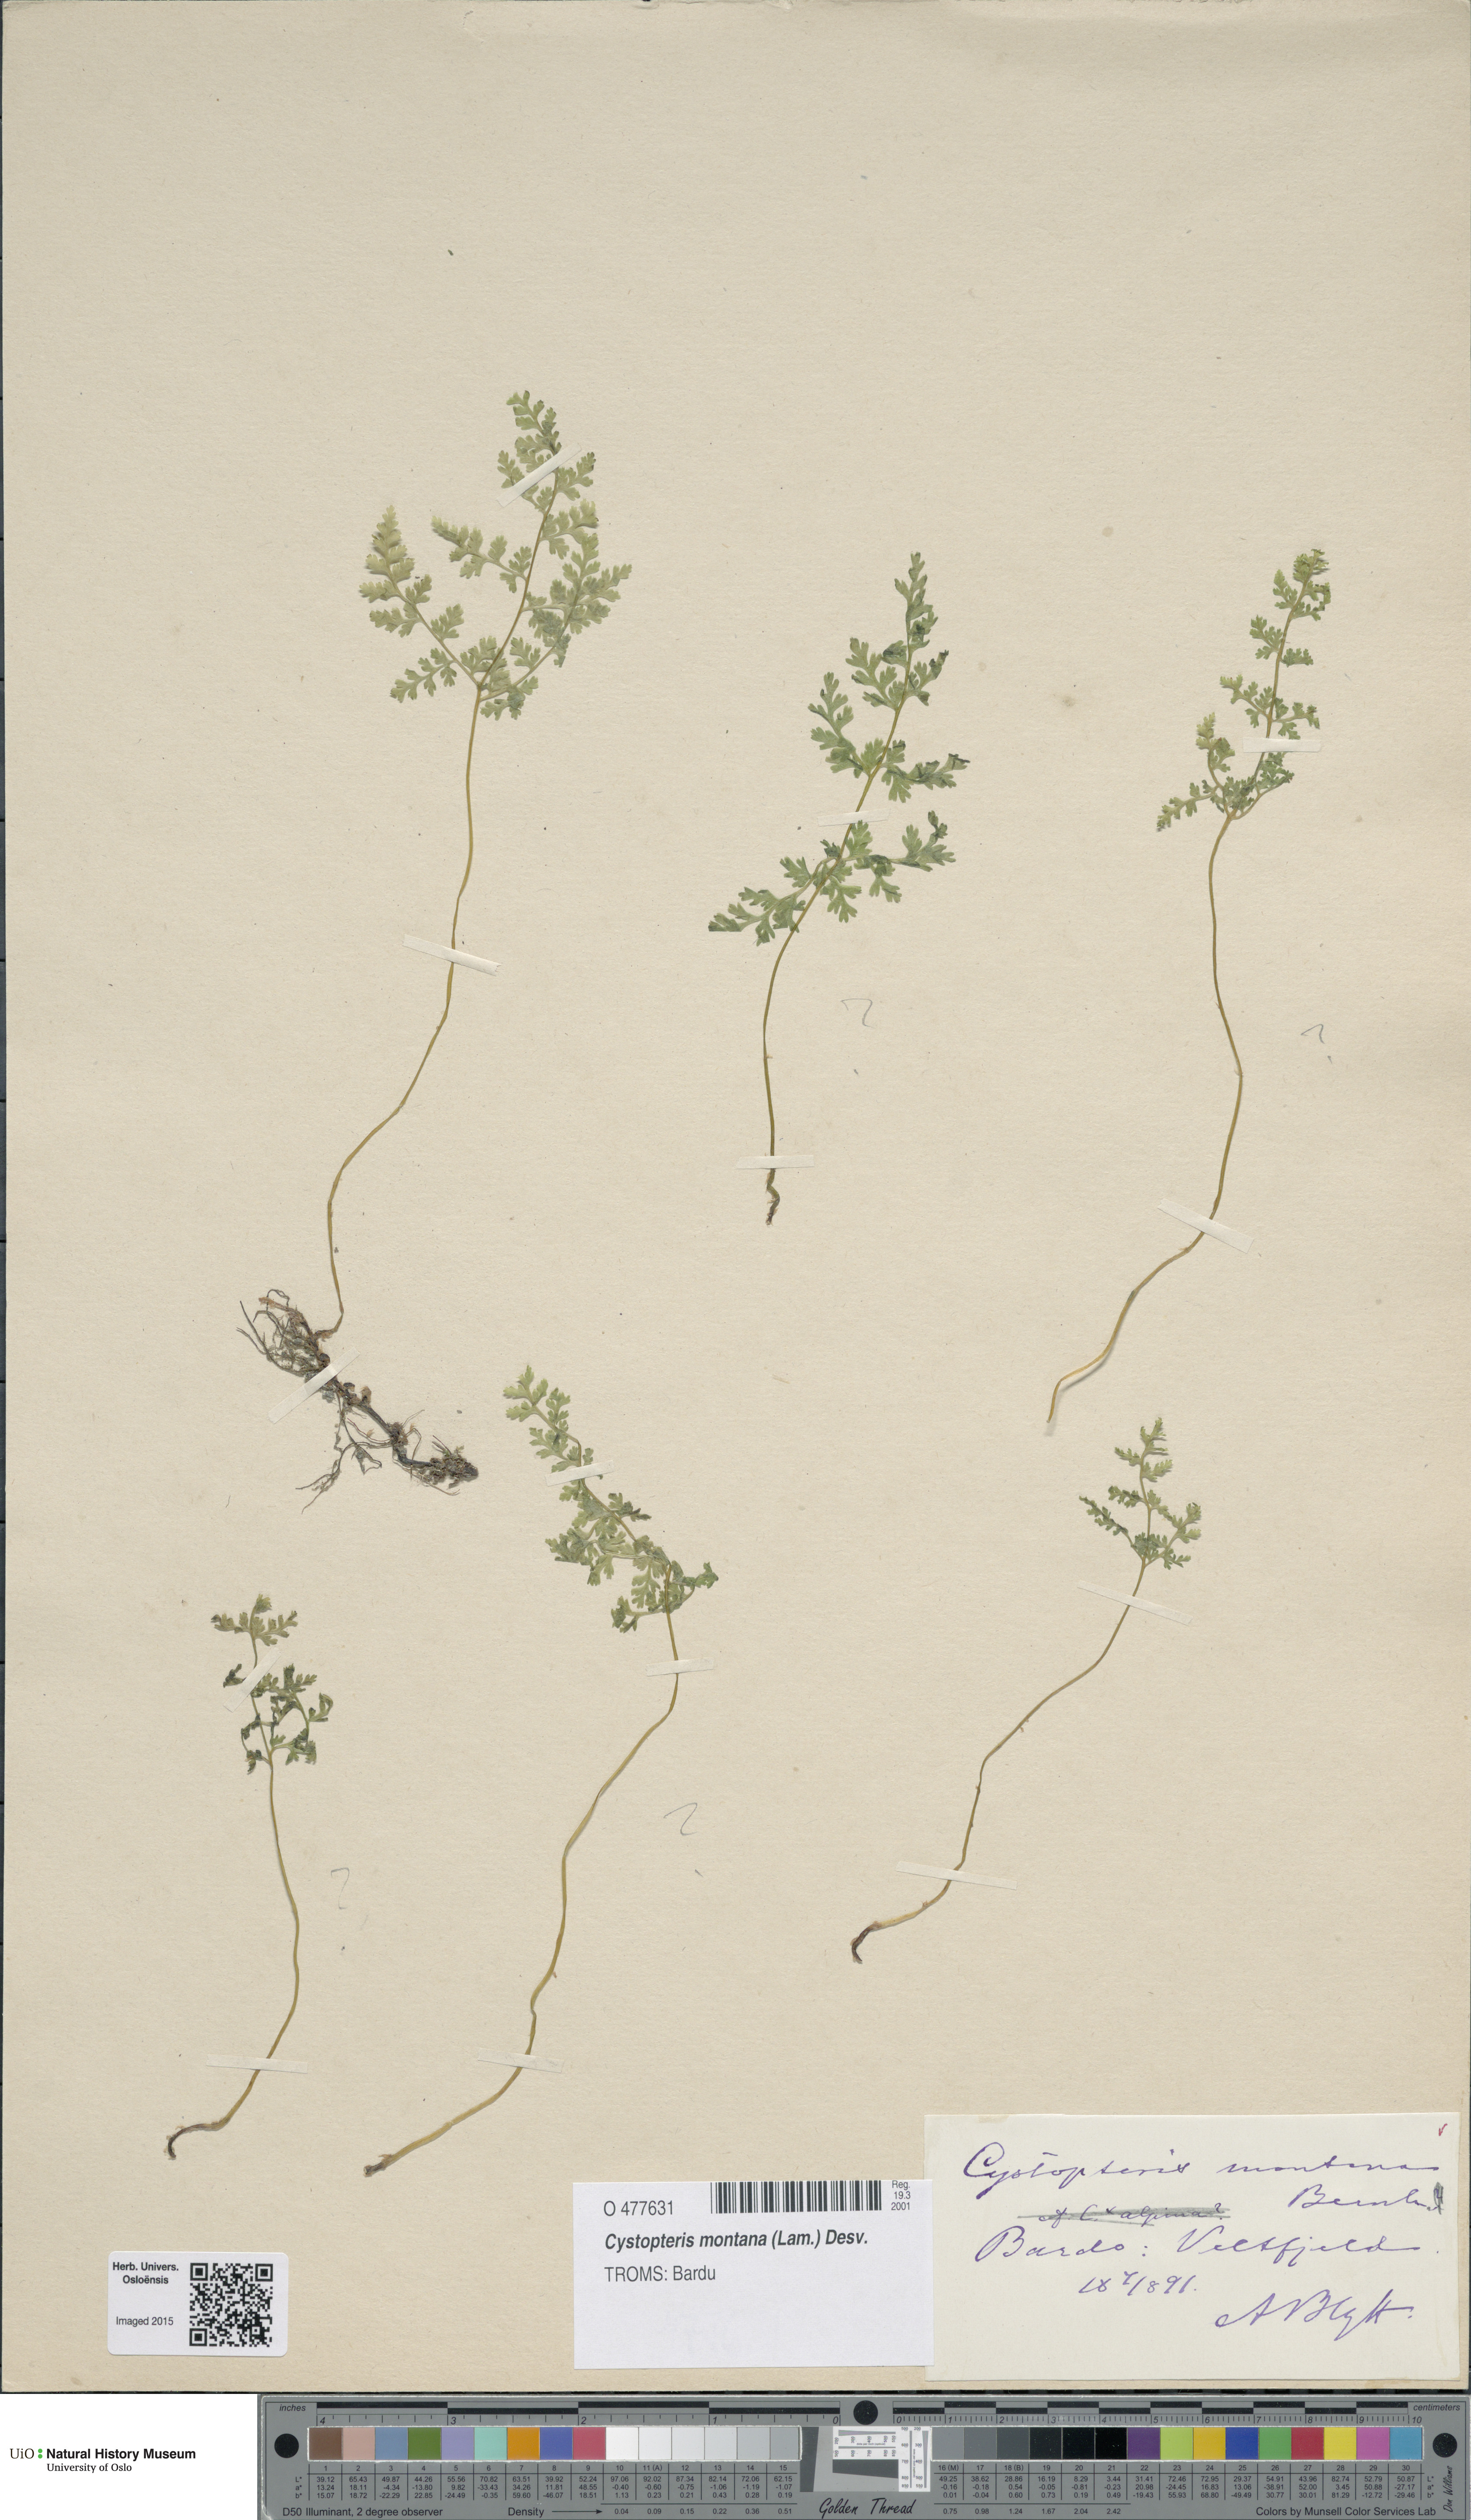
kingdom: Plantae
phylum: Tracheophyta
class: Polypodiopsida
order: Polypodiales
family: Cystopteridaceae
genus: Cystopteris
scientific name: Cystopteris montana
